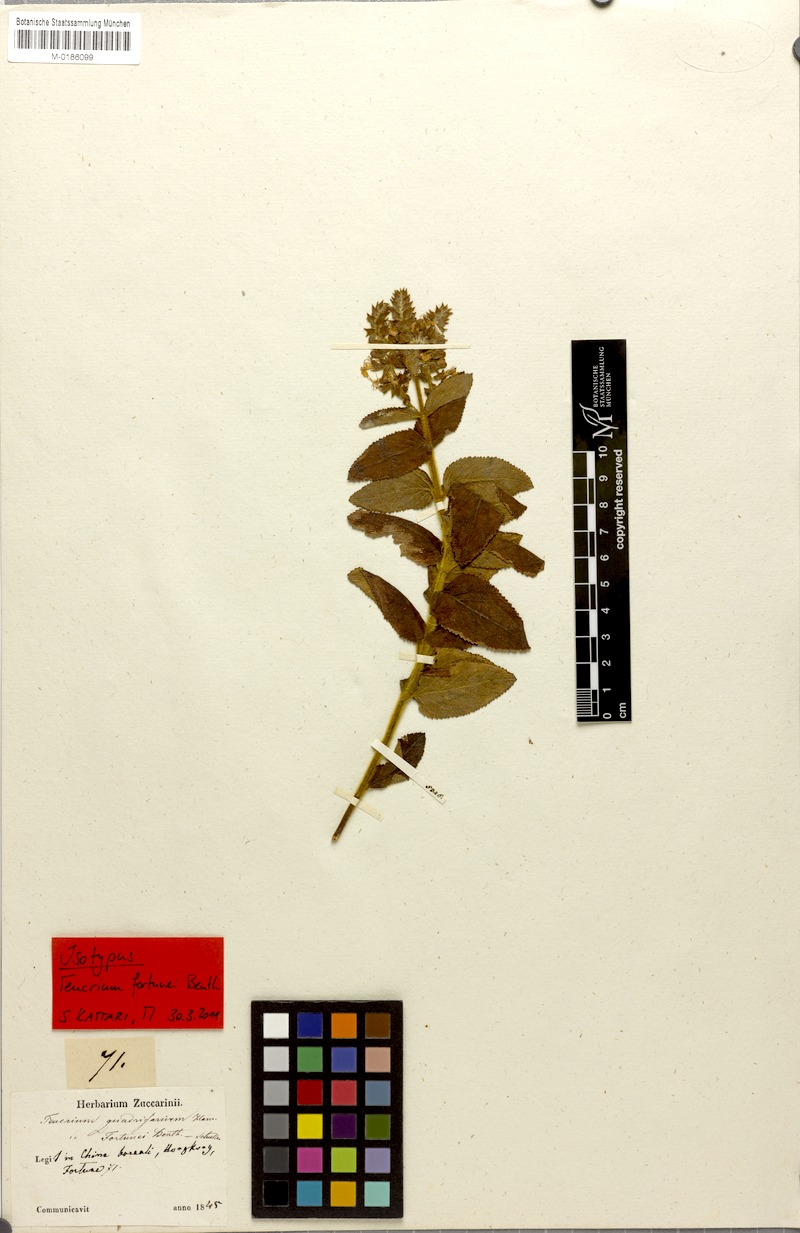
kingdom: Plantae
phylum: Tracheophyta
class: Magnoliopsida
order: Lamiales
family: Lamiaceae
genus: Teucrium
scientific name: Teucrium quadrifarium
